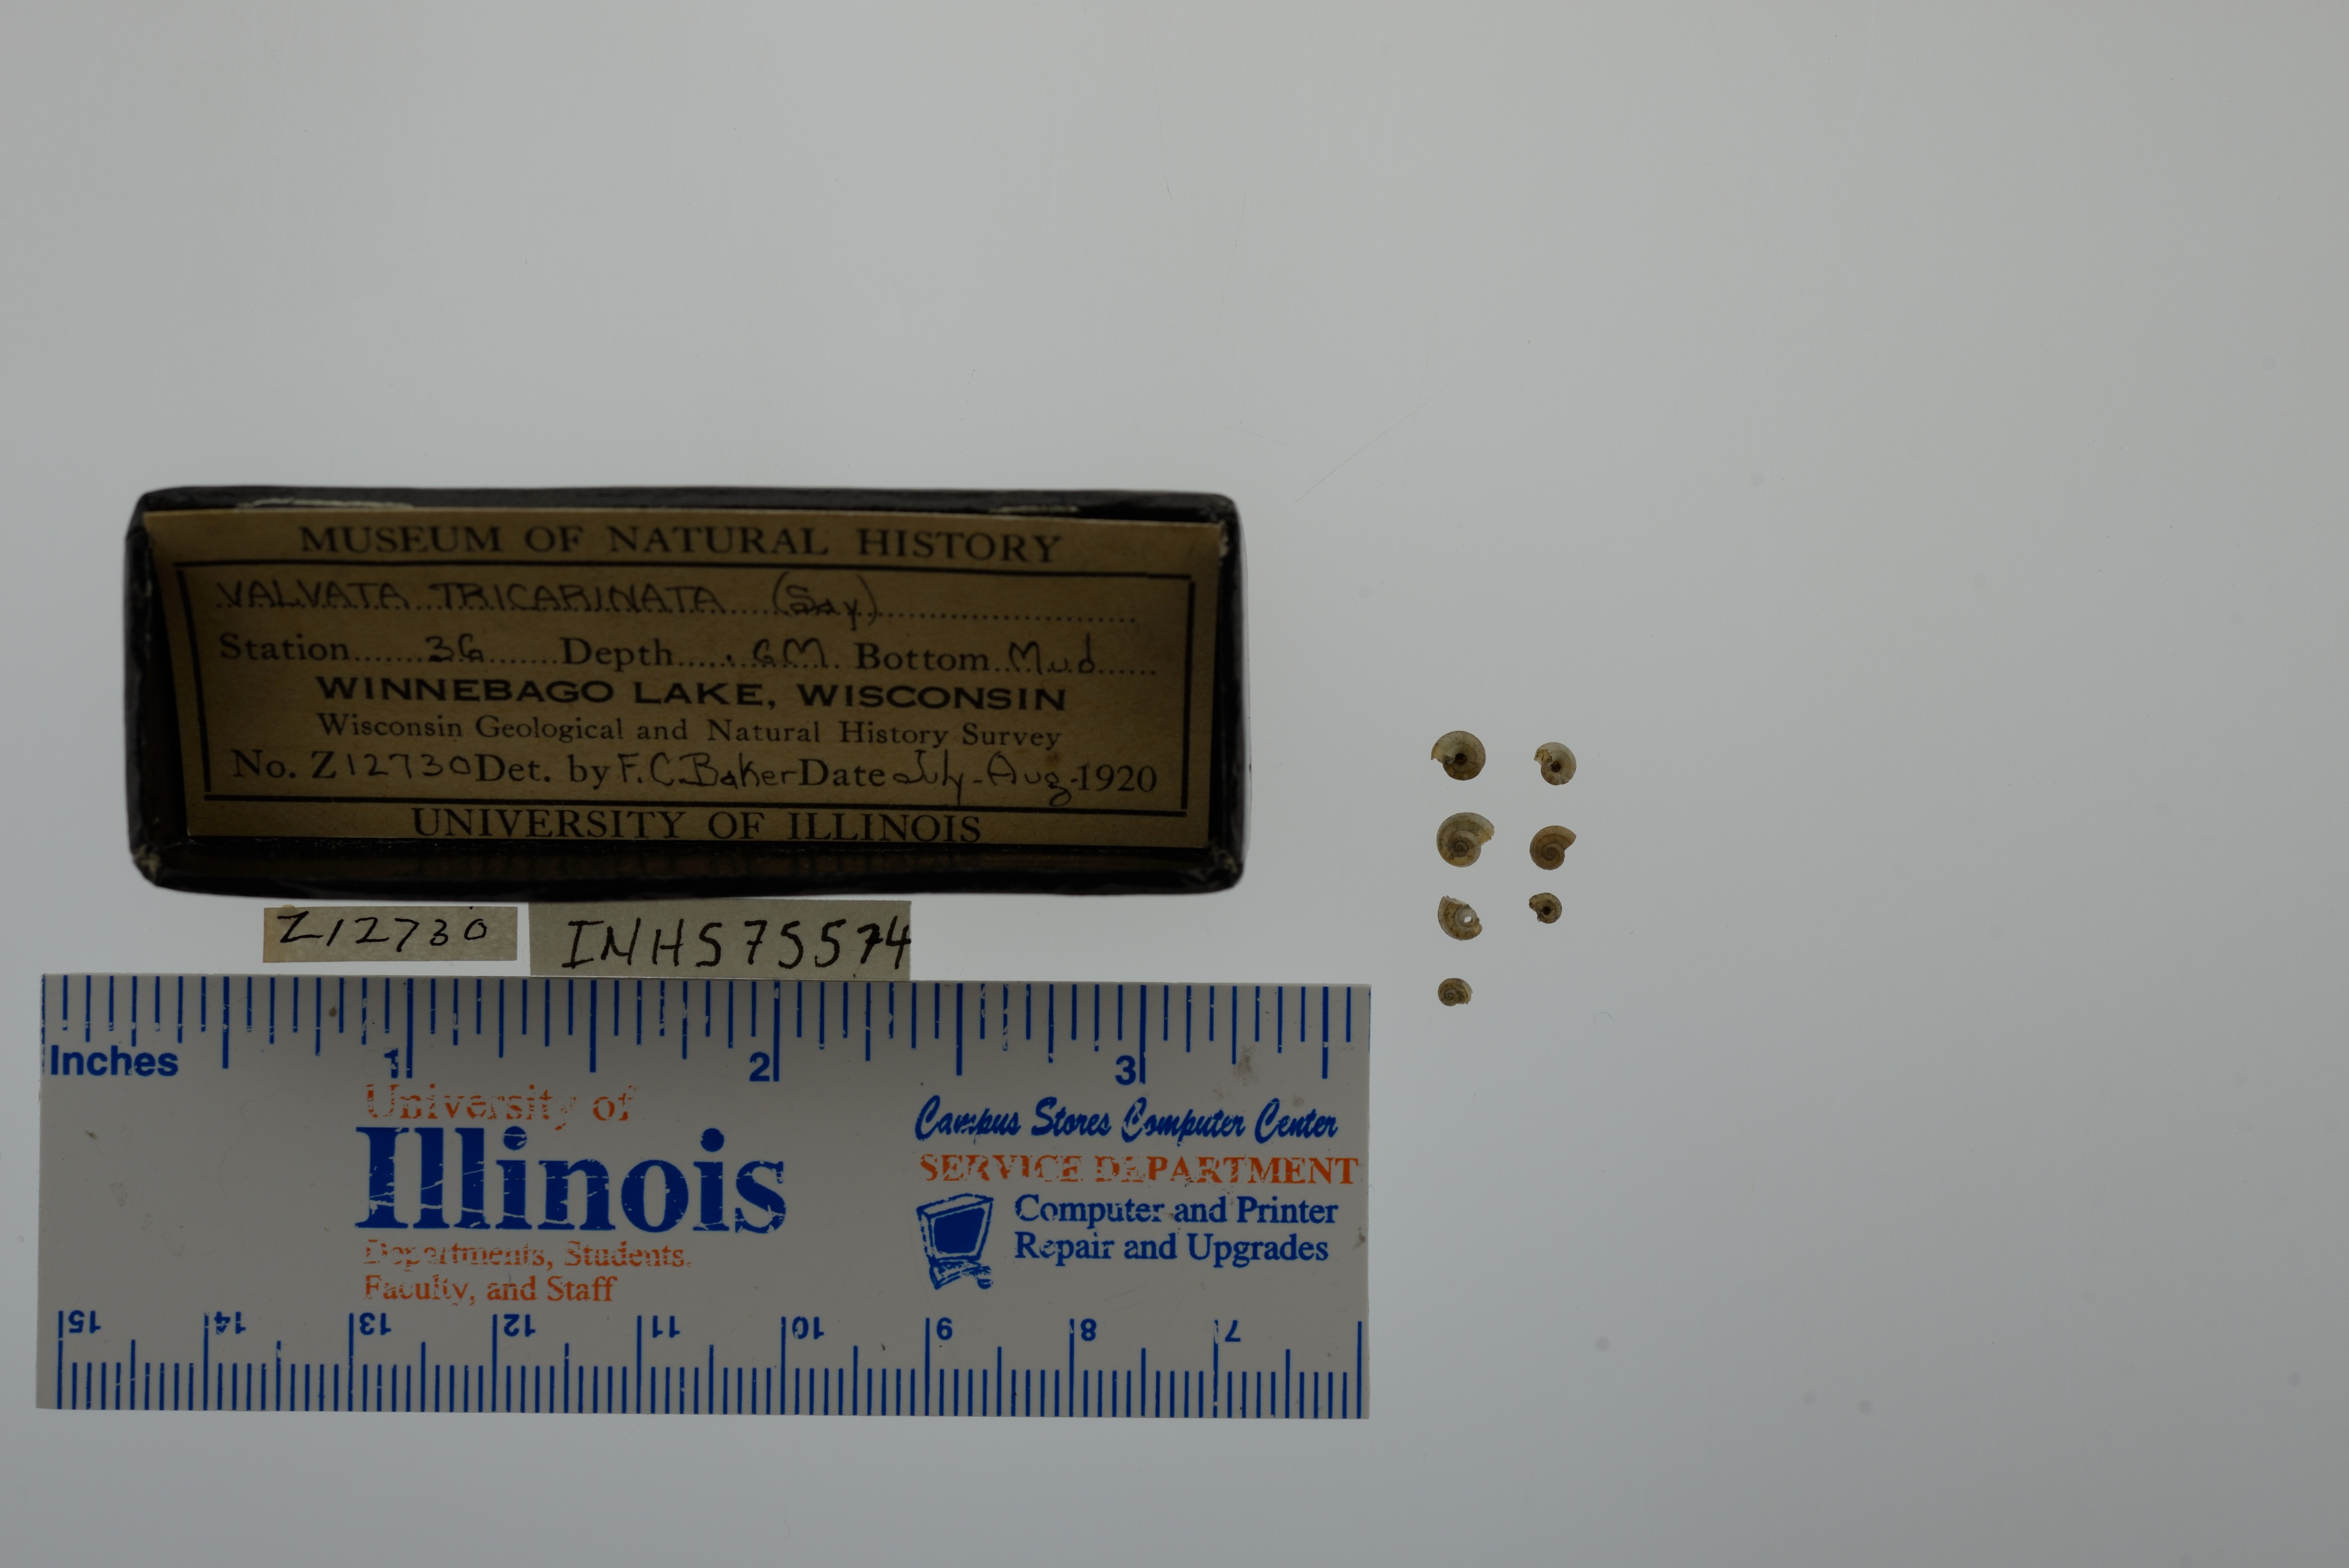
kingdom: Animalia
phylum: Mollusca
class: Gastropoda
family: Valvatidae
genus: Valvata
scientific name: Valvata tricarinata
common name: Three-ridge valvata
